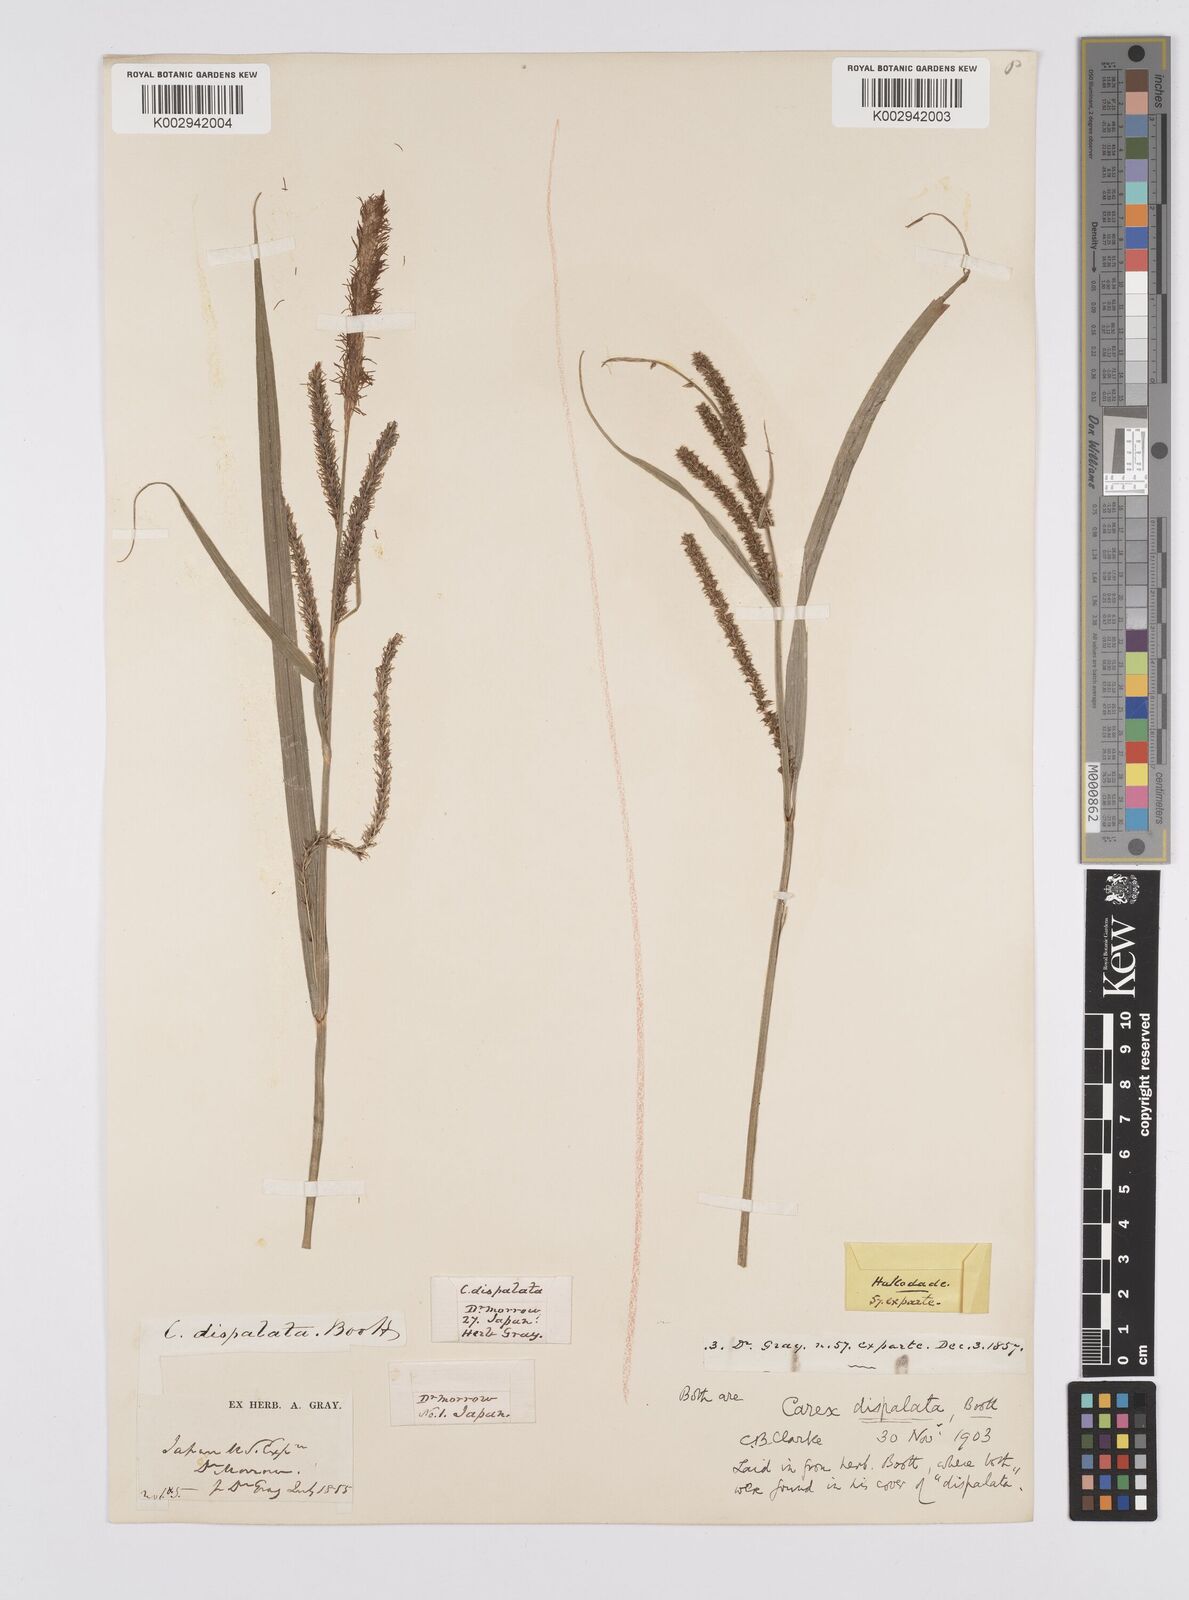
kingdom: Plantae
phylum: Tracheophyta
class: Liliopsida
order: Poales
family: Cyperaceae
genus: Carex
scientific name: Carex dispalata
